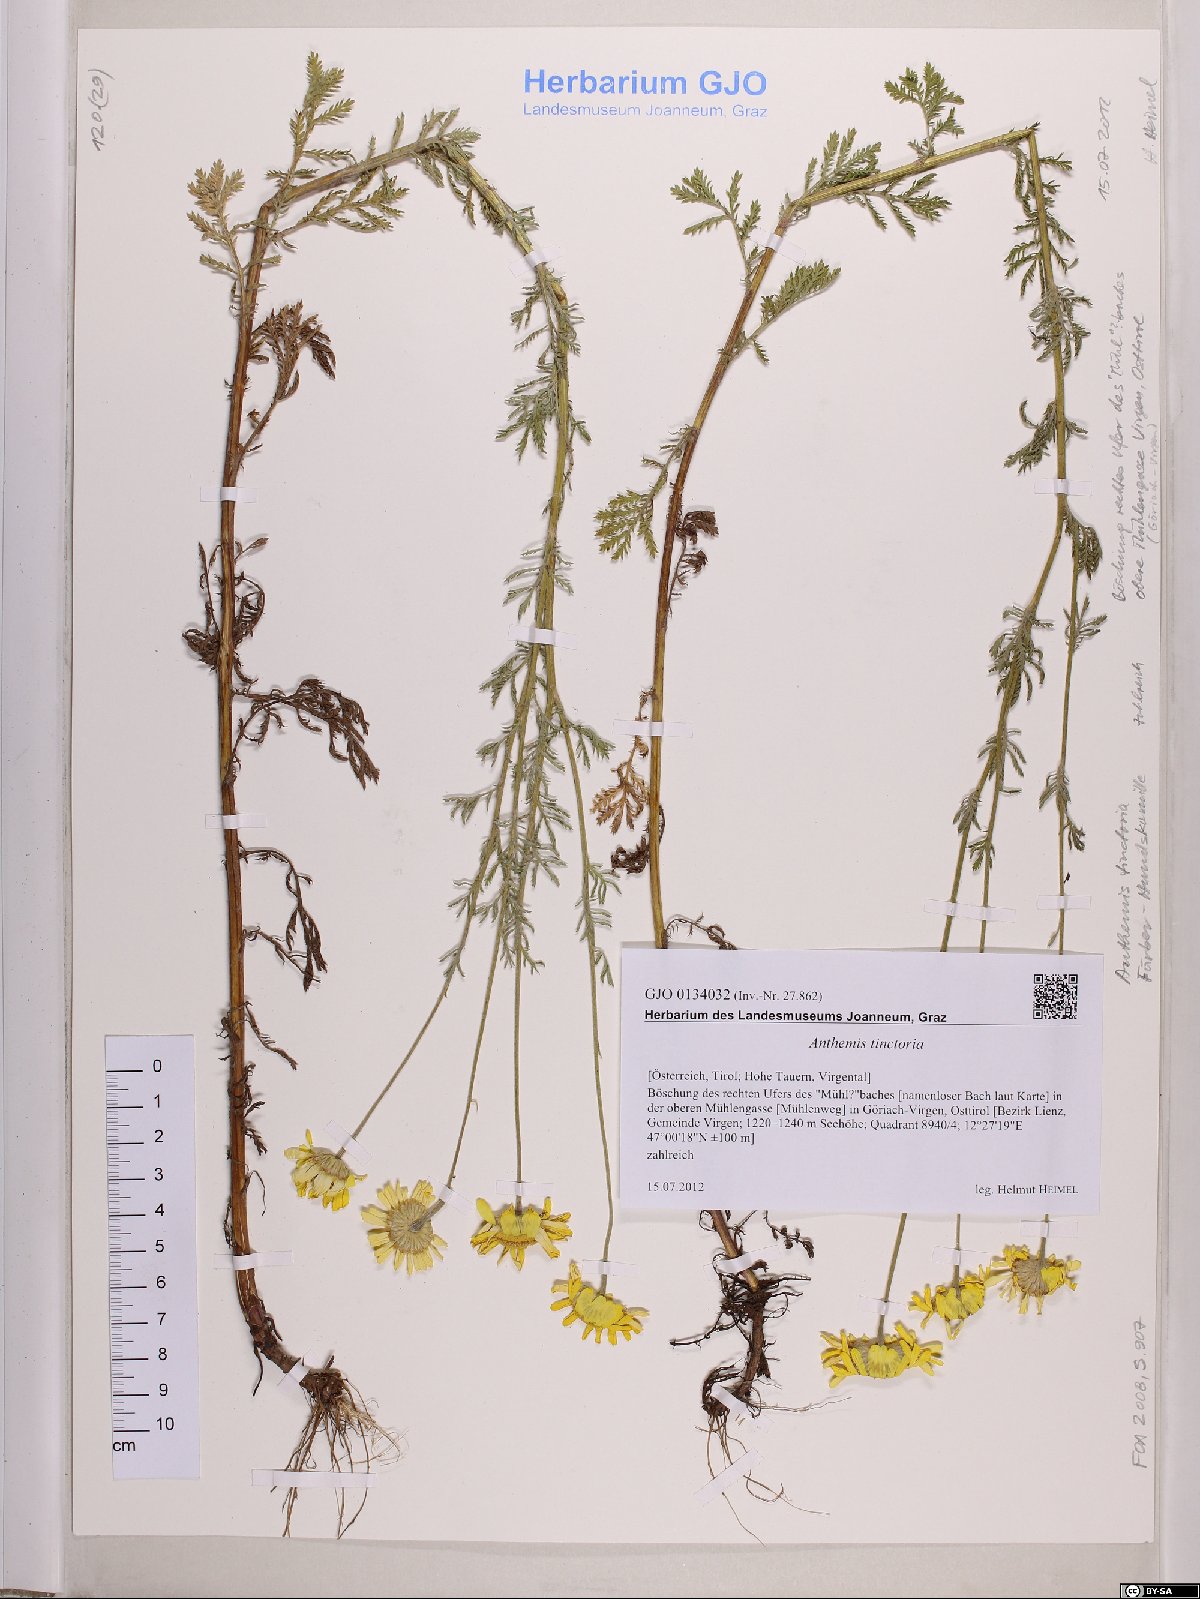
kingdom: Plantae
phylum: Tracheophyta
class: Magnoliopsida
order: Asterales
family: Asteraceae
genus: Cota
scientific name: Cota tinctoria
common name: Golden chamomile
